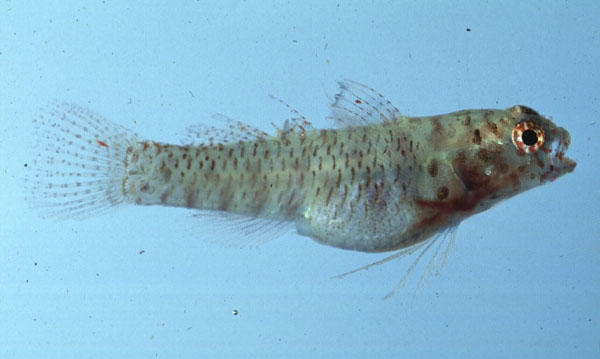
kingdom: Animalia
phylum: Chordata
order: Perciformes
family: Gobiidae
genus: Eviota
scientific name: Eviota queenslandica
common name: Queensland pygmy goby
